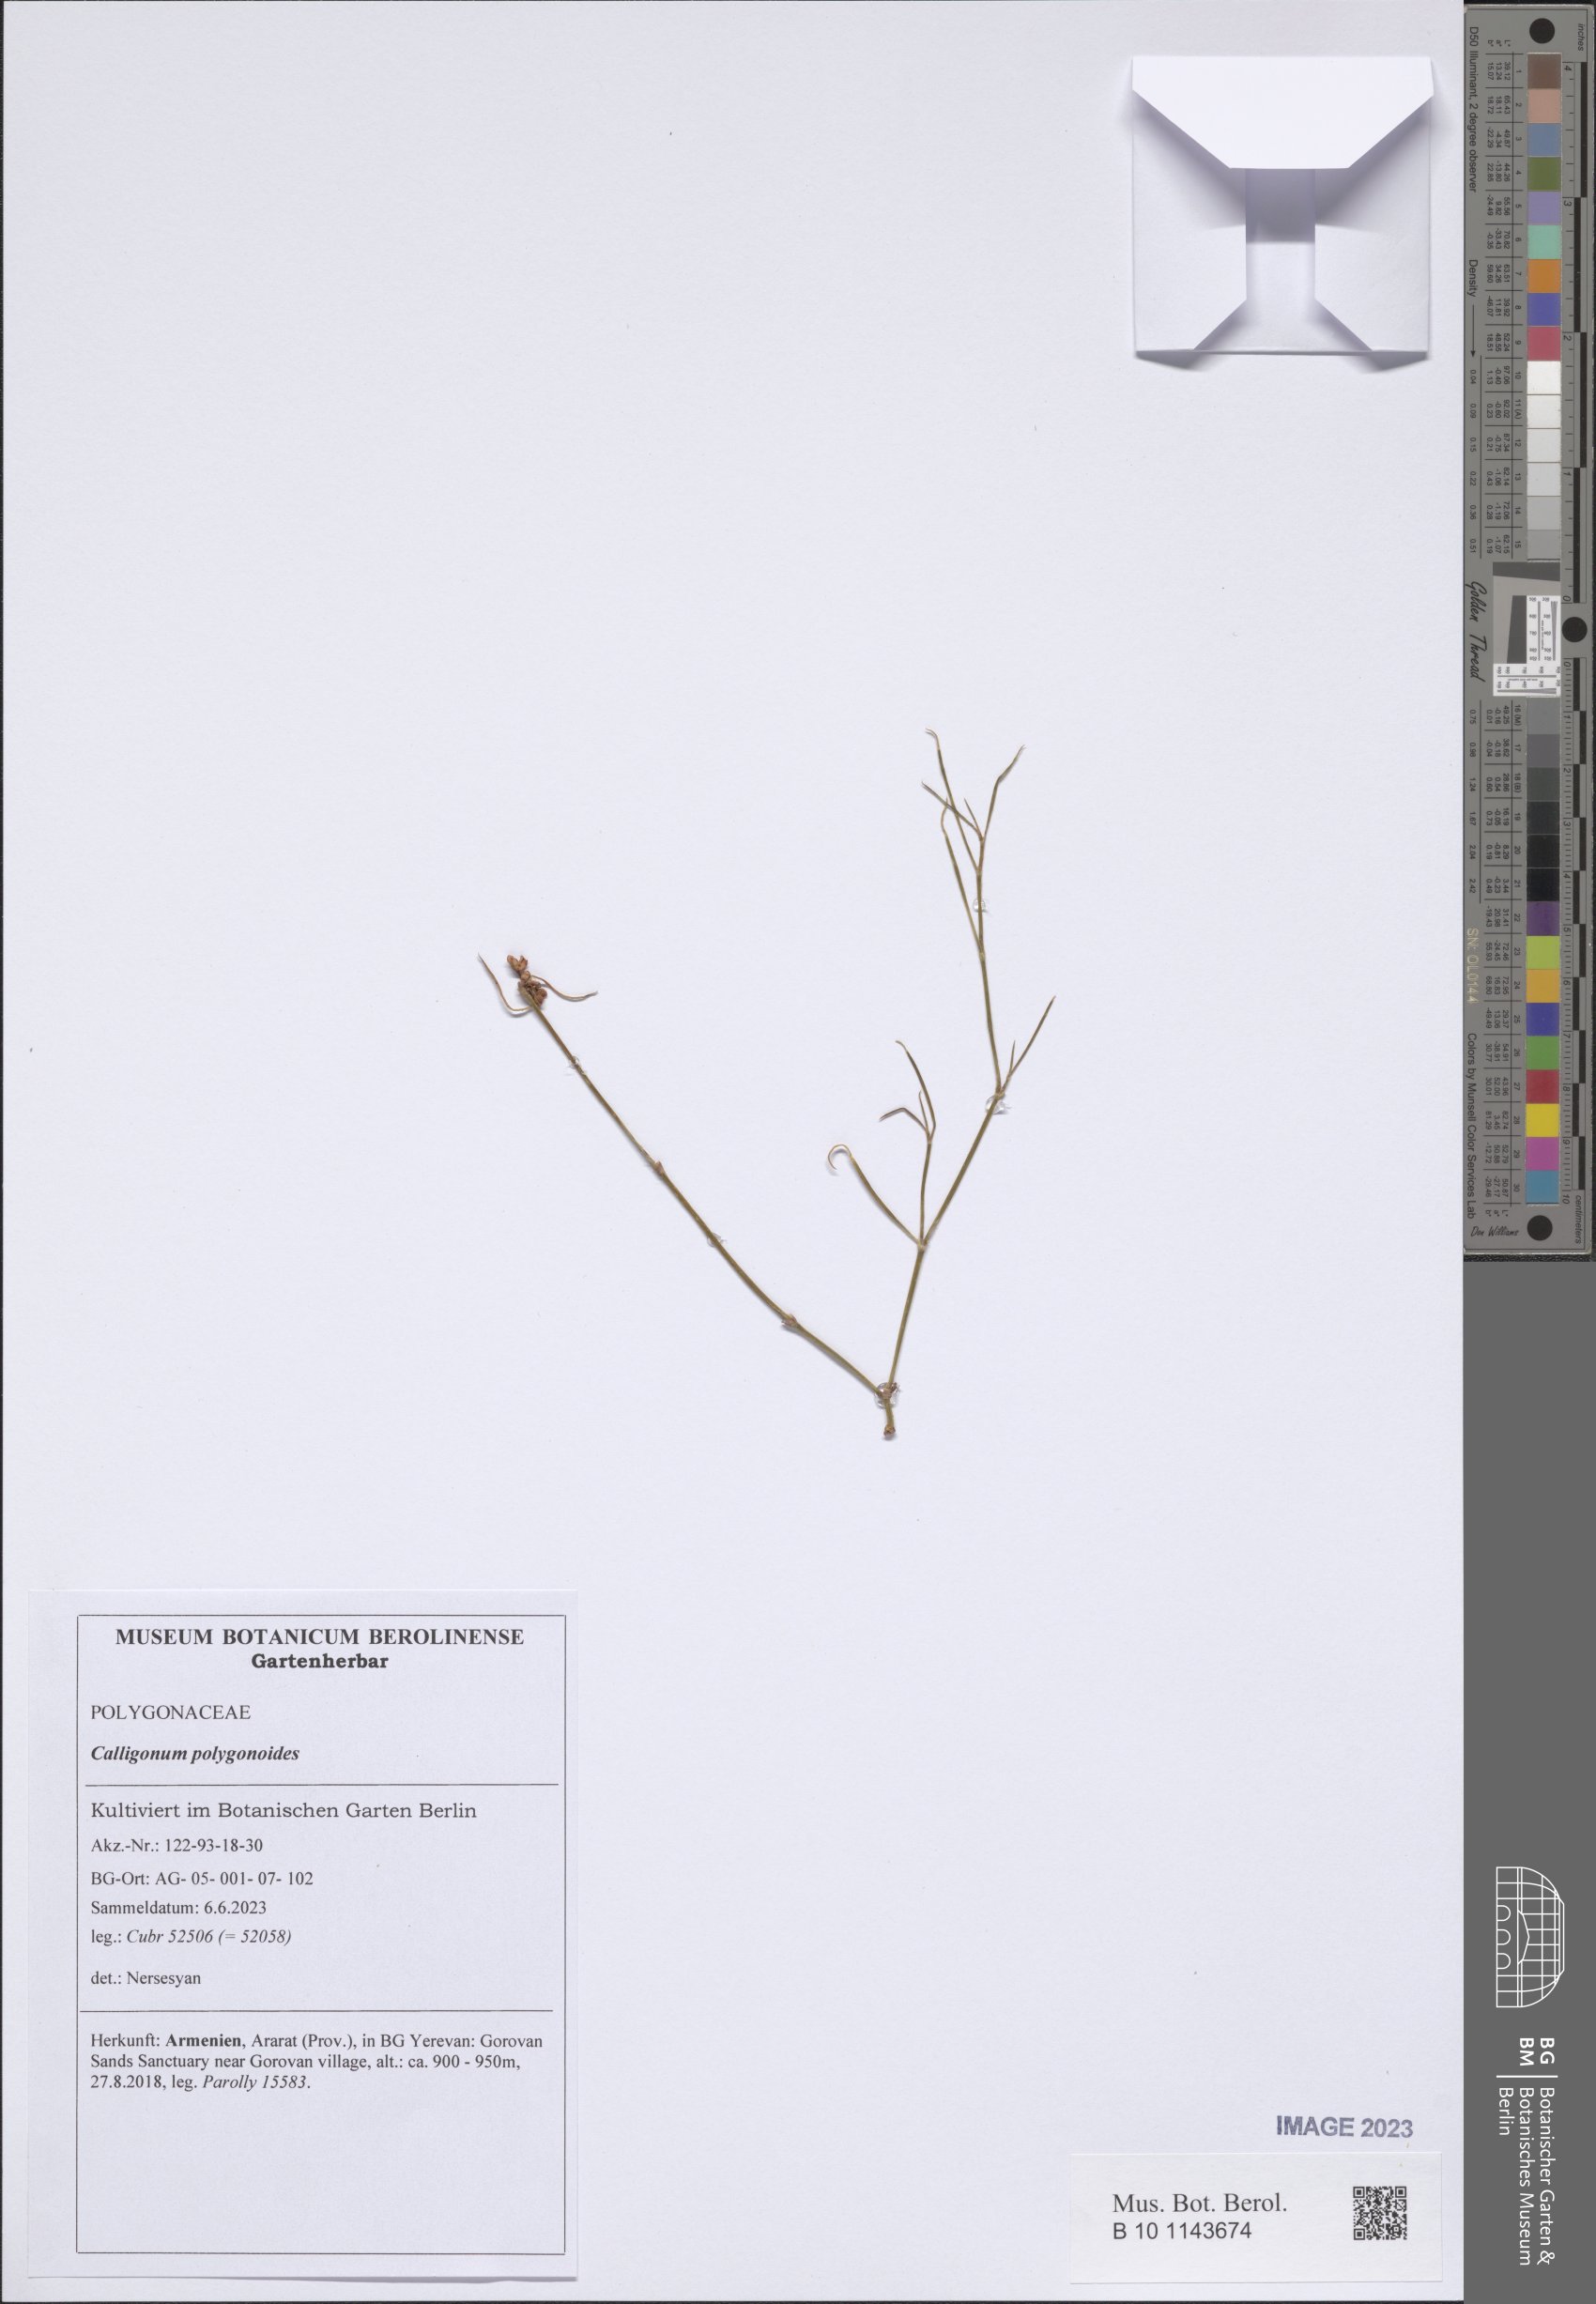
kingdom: Plantae
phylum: Tracheophyta
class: Magnoliopsida
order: Caryophyllales
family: Polygonaceae
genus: Calligonum
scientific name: Calligonum polygonoides
